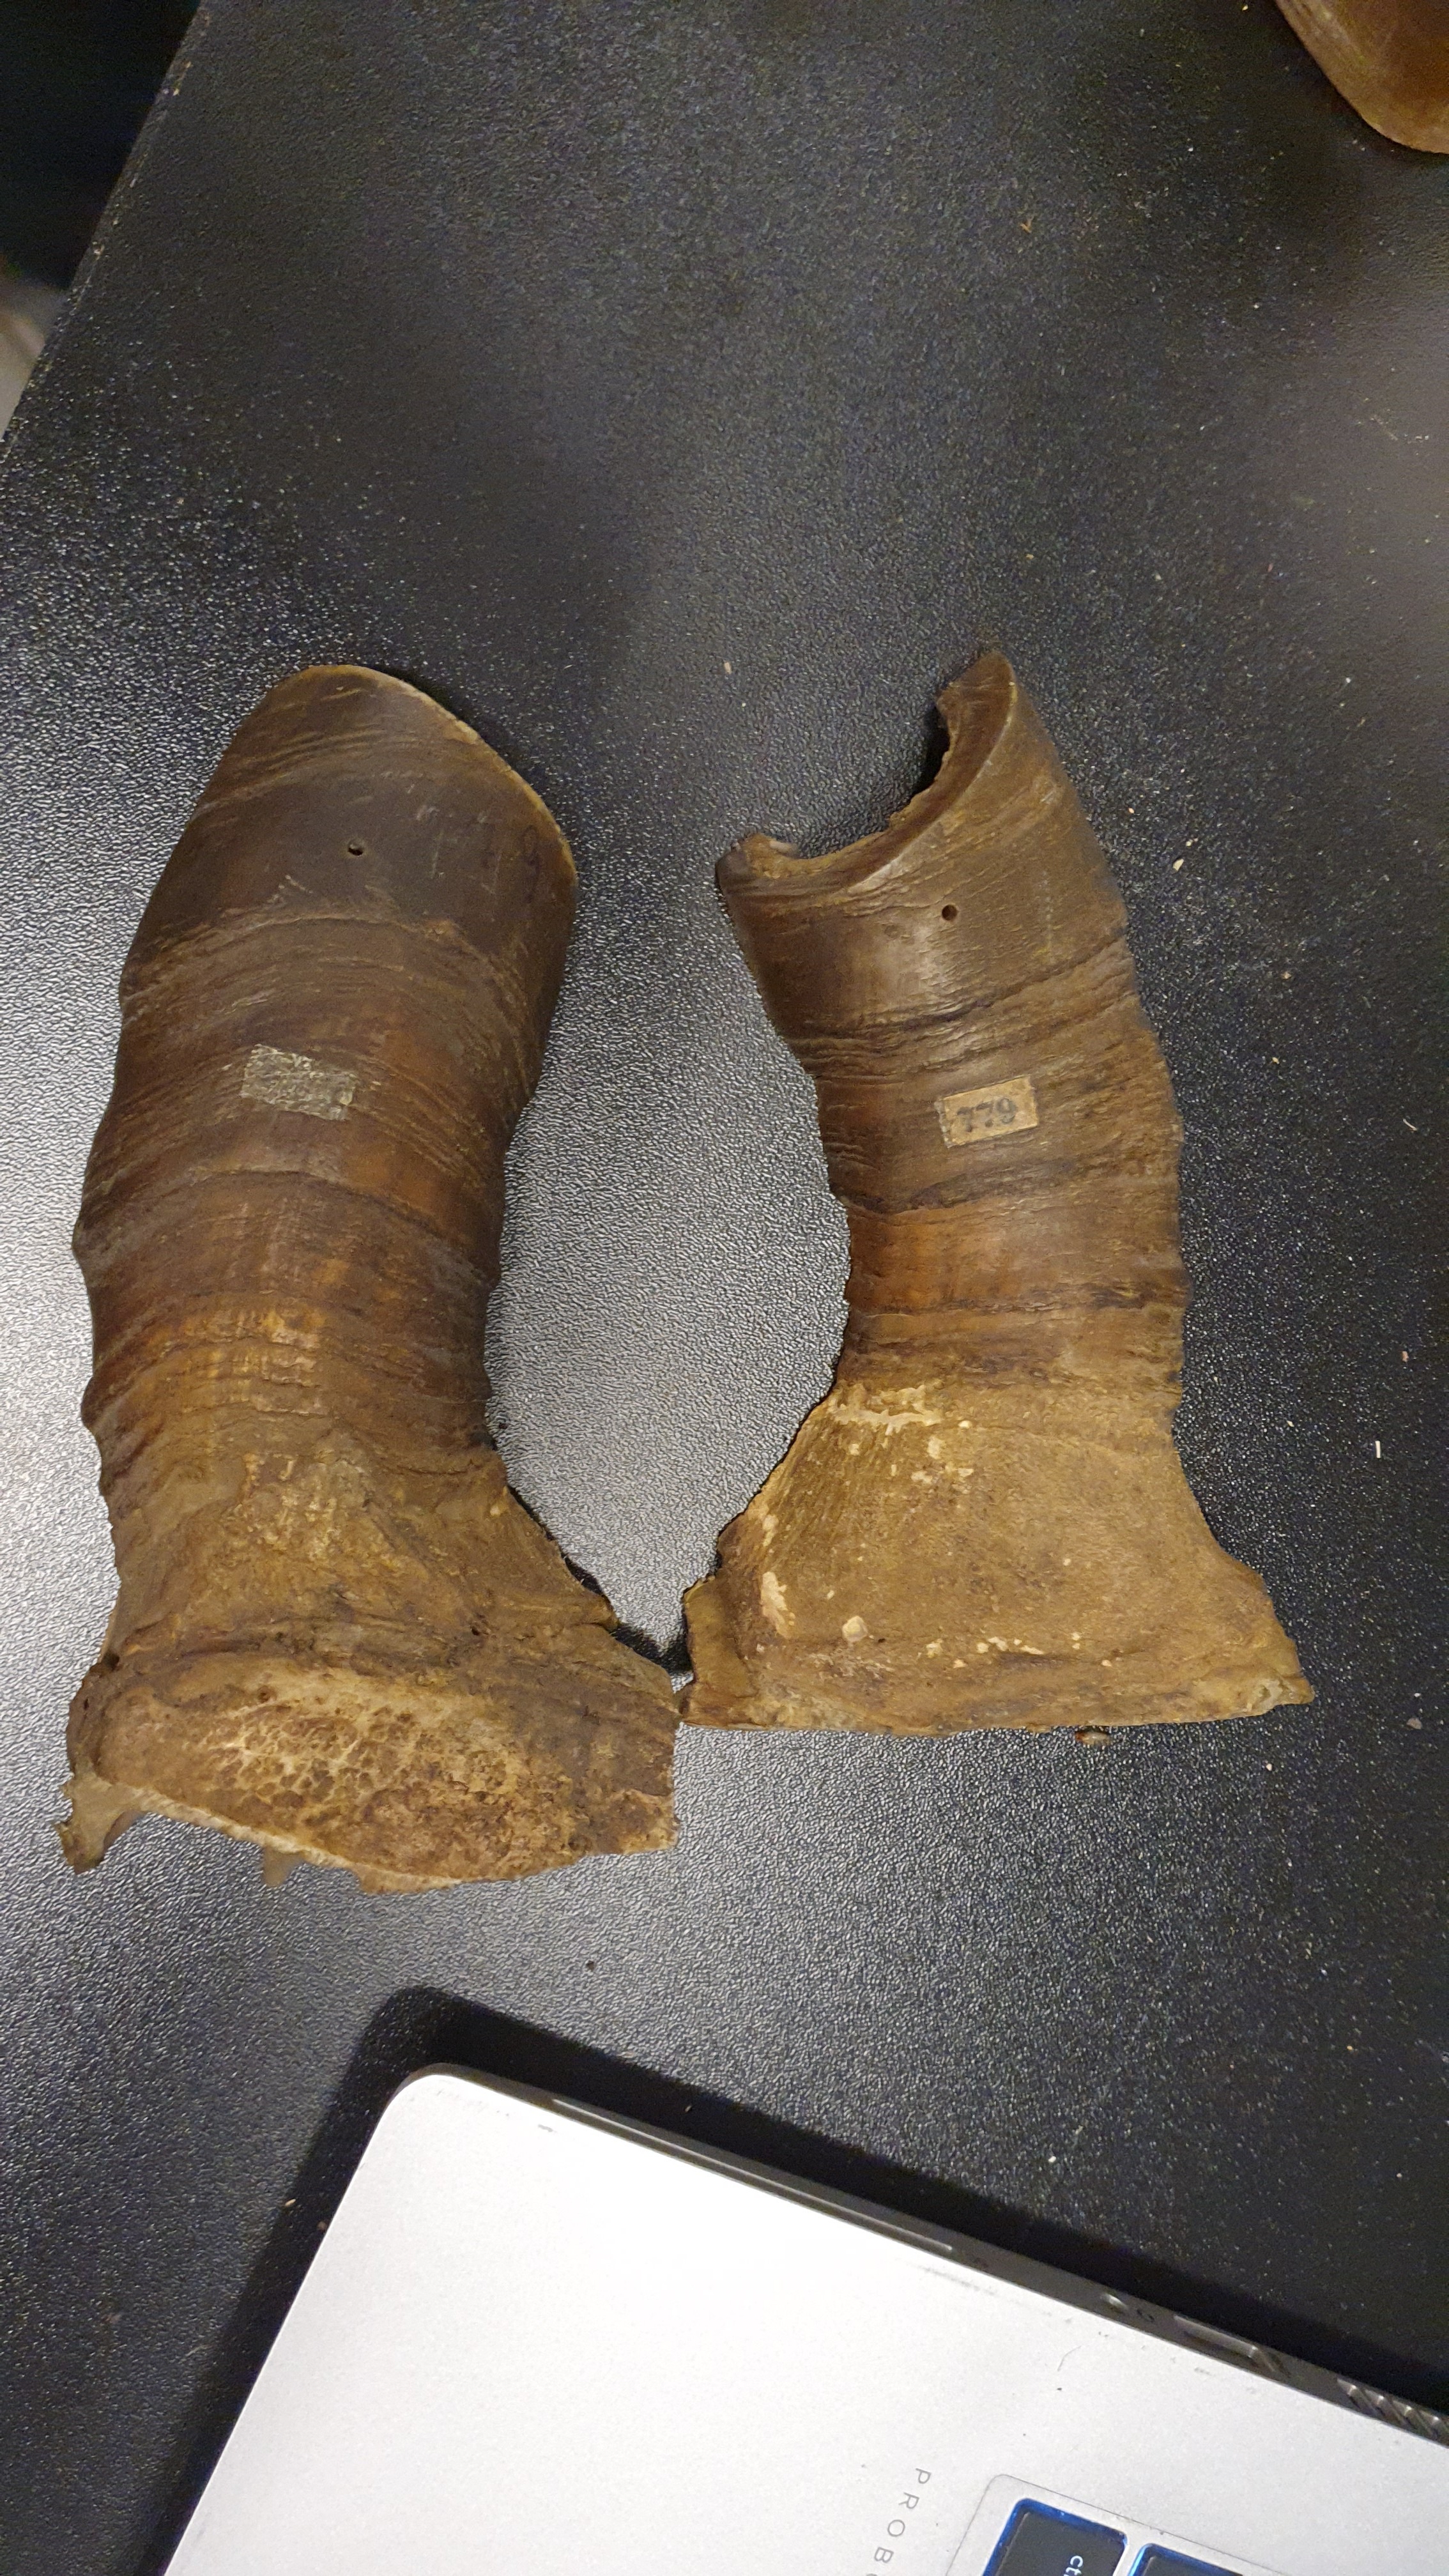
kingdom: Animalia
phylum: Chordata
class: Mammalia
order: Artiodactyla
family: Bovidae
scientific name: Bovidae
